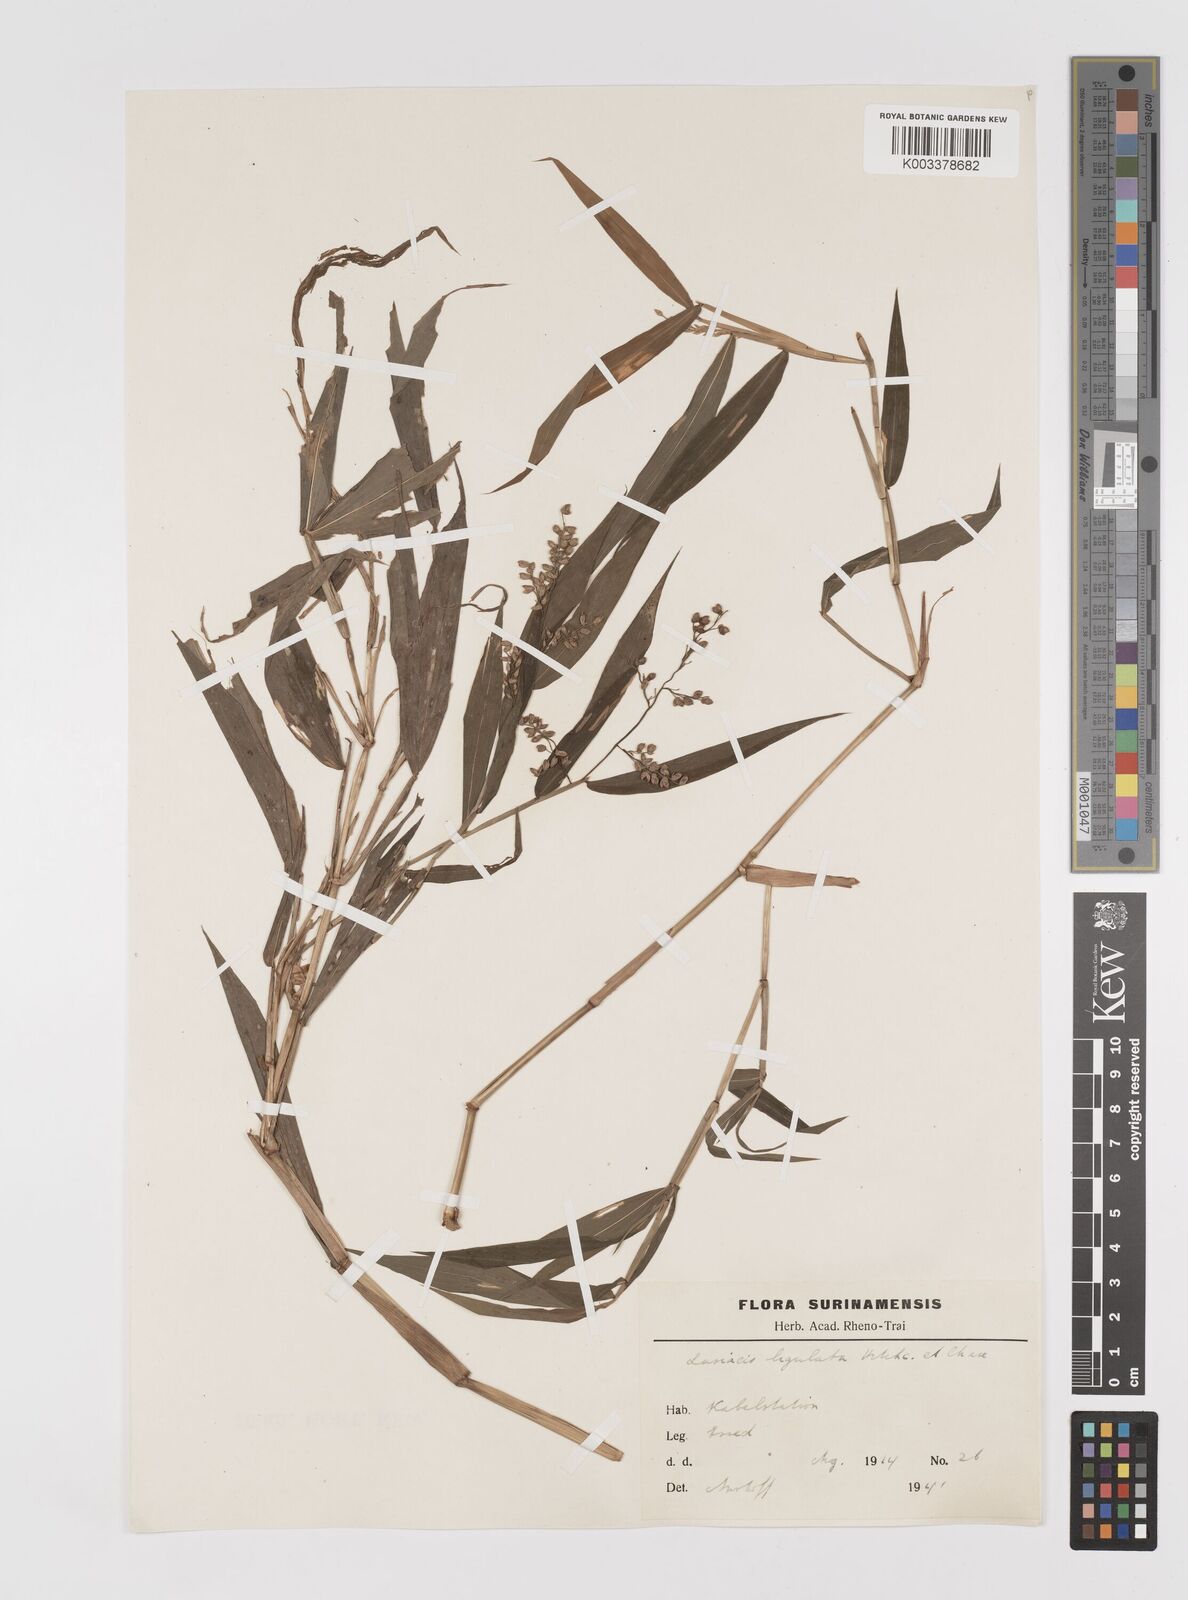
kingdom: Plantae
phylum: Tracheophyta
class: Liliopsida
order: Poales
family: Poaceae
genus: Lasiacis
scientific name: Lasiacis ligulata
